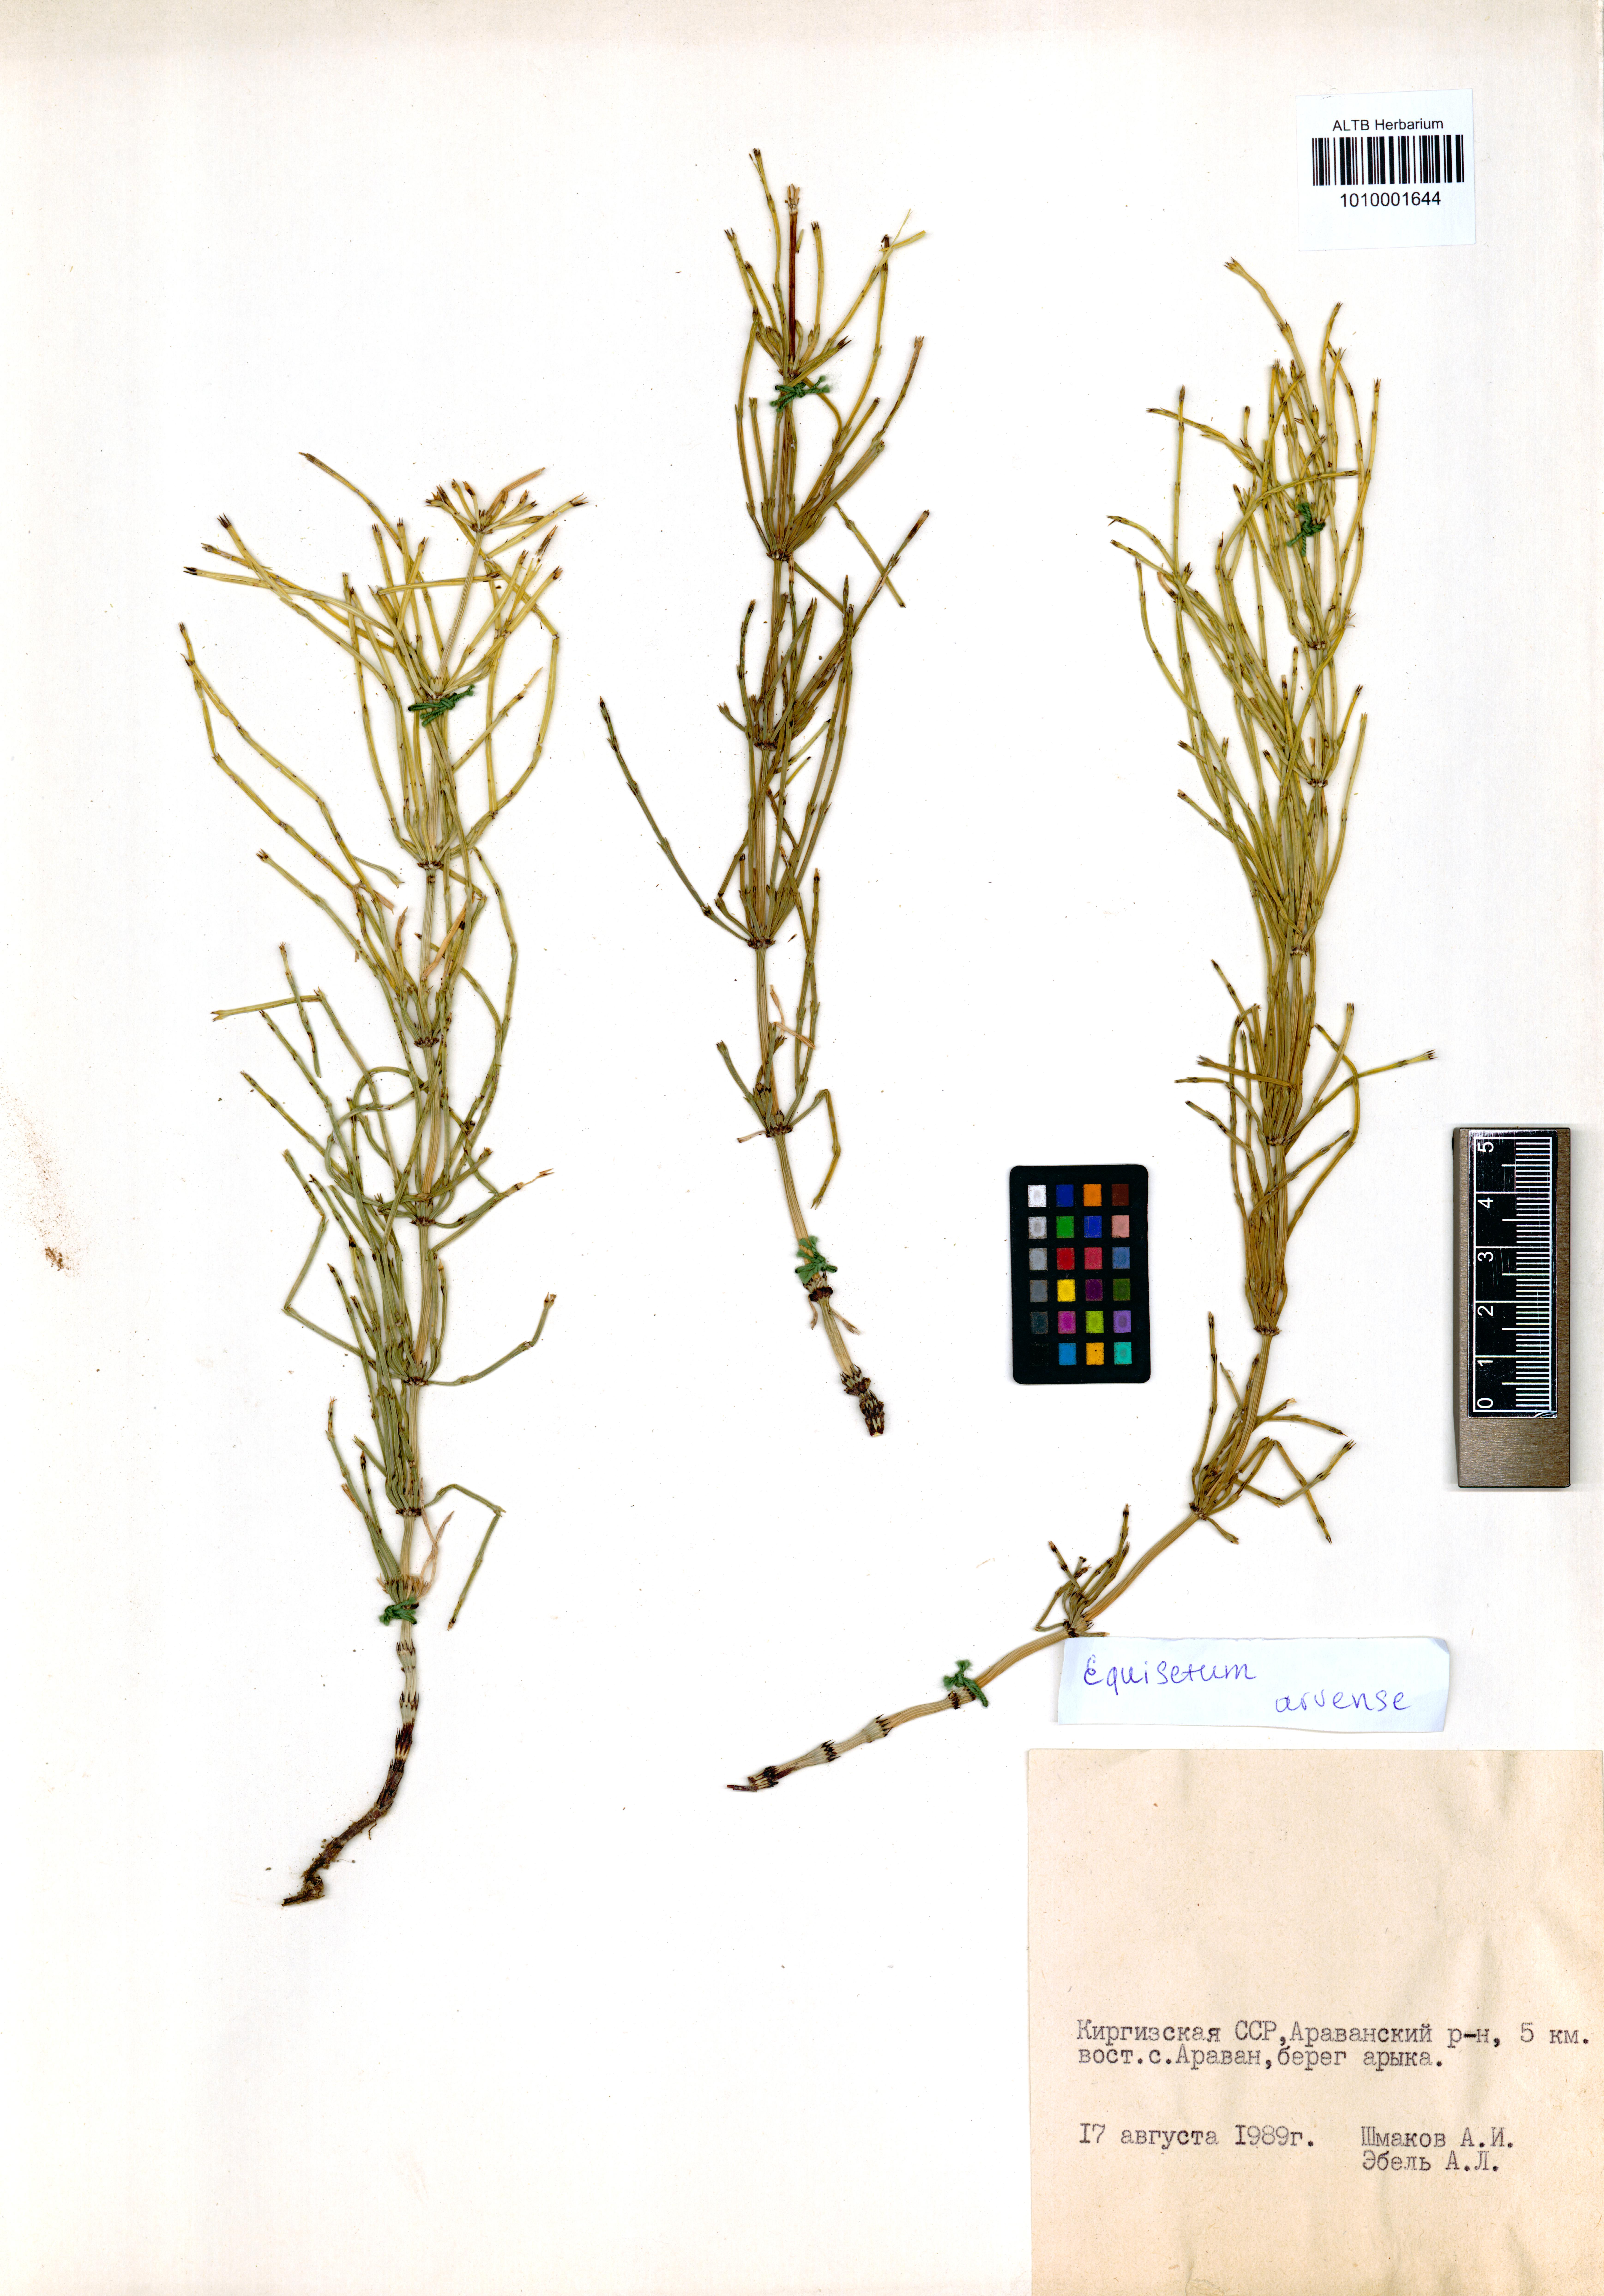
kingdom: Plantae
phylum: Tracheophyta
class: Polypodiopsida
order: Equisetales
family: Equisetaceae
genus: Equisetum
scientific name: Equisetum arvense
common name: Field horsetail
